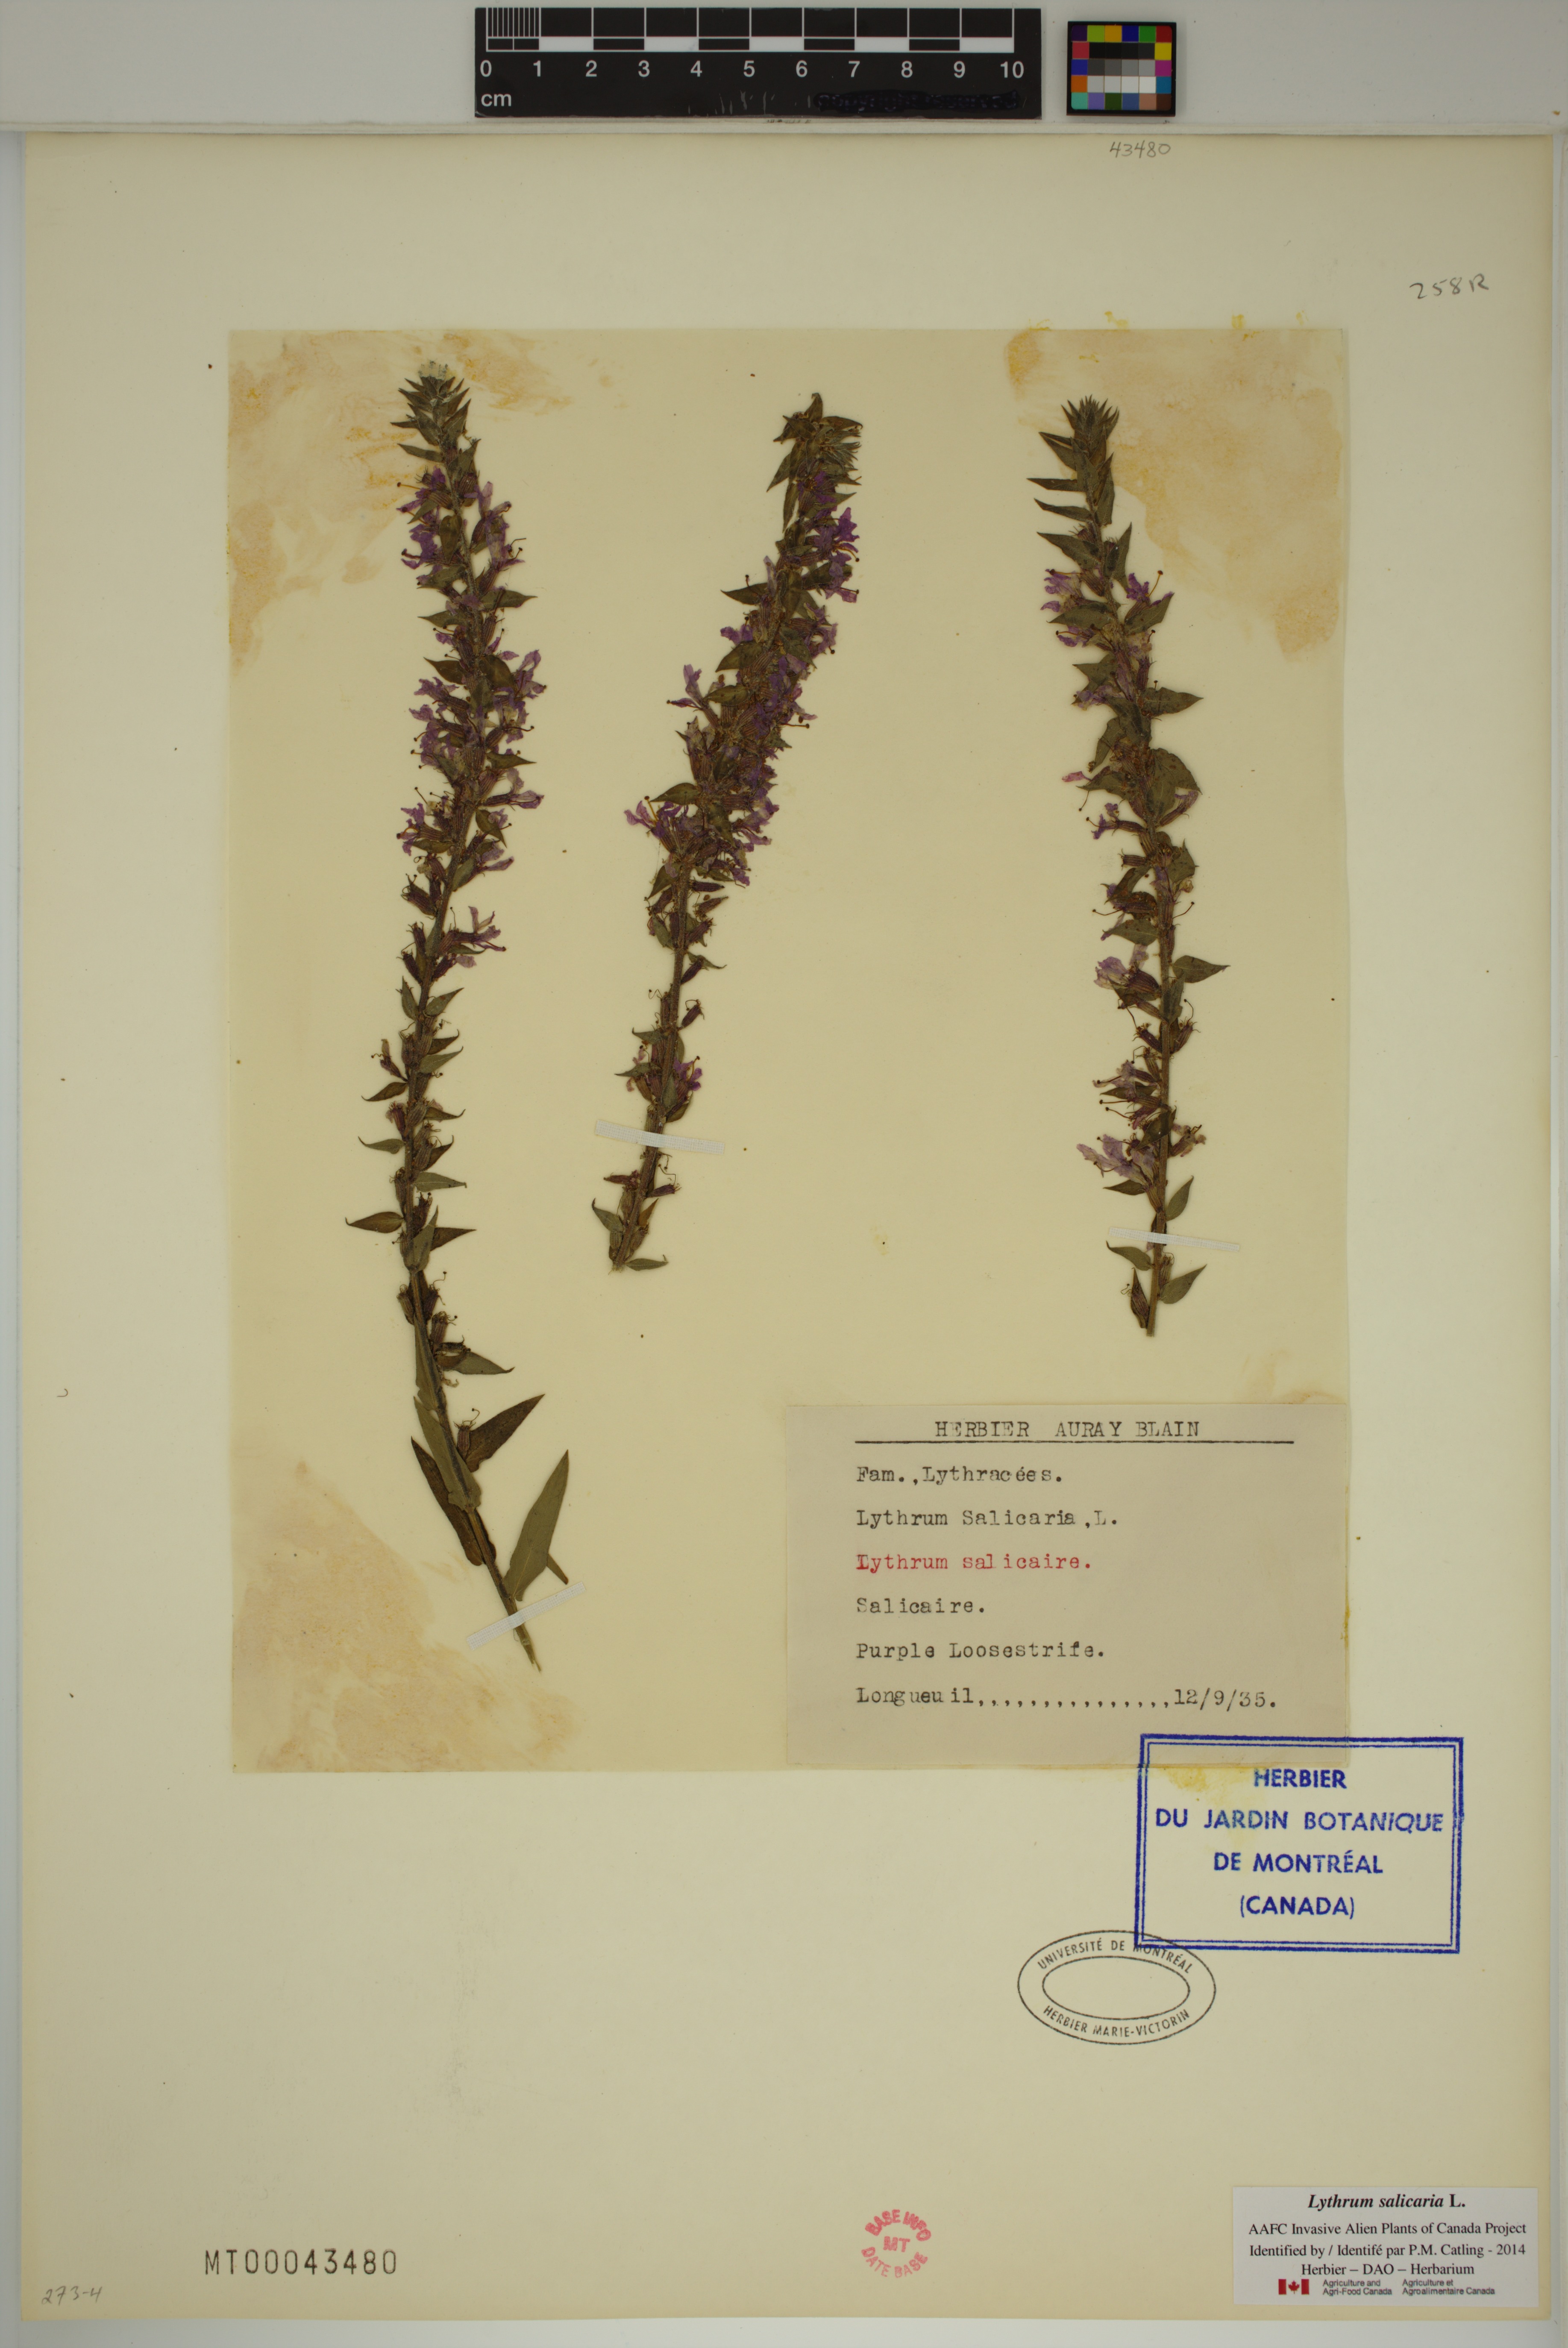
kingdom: Plantae
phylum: Tracheophyta
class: Magnoliopsida
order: Myrtales
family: Lythraceae
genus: Lythrum
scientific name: Lythrum salicaria
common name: Purple loosestrife
